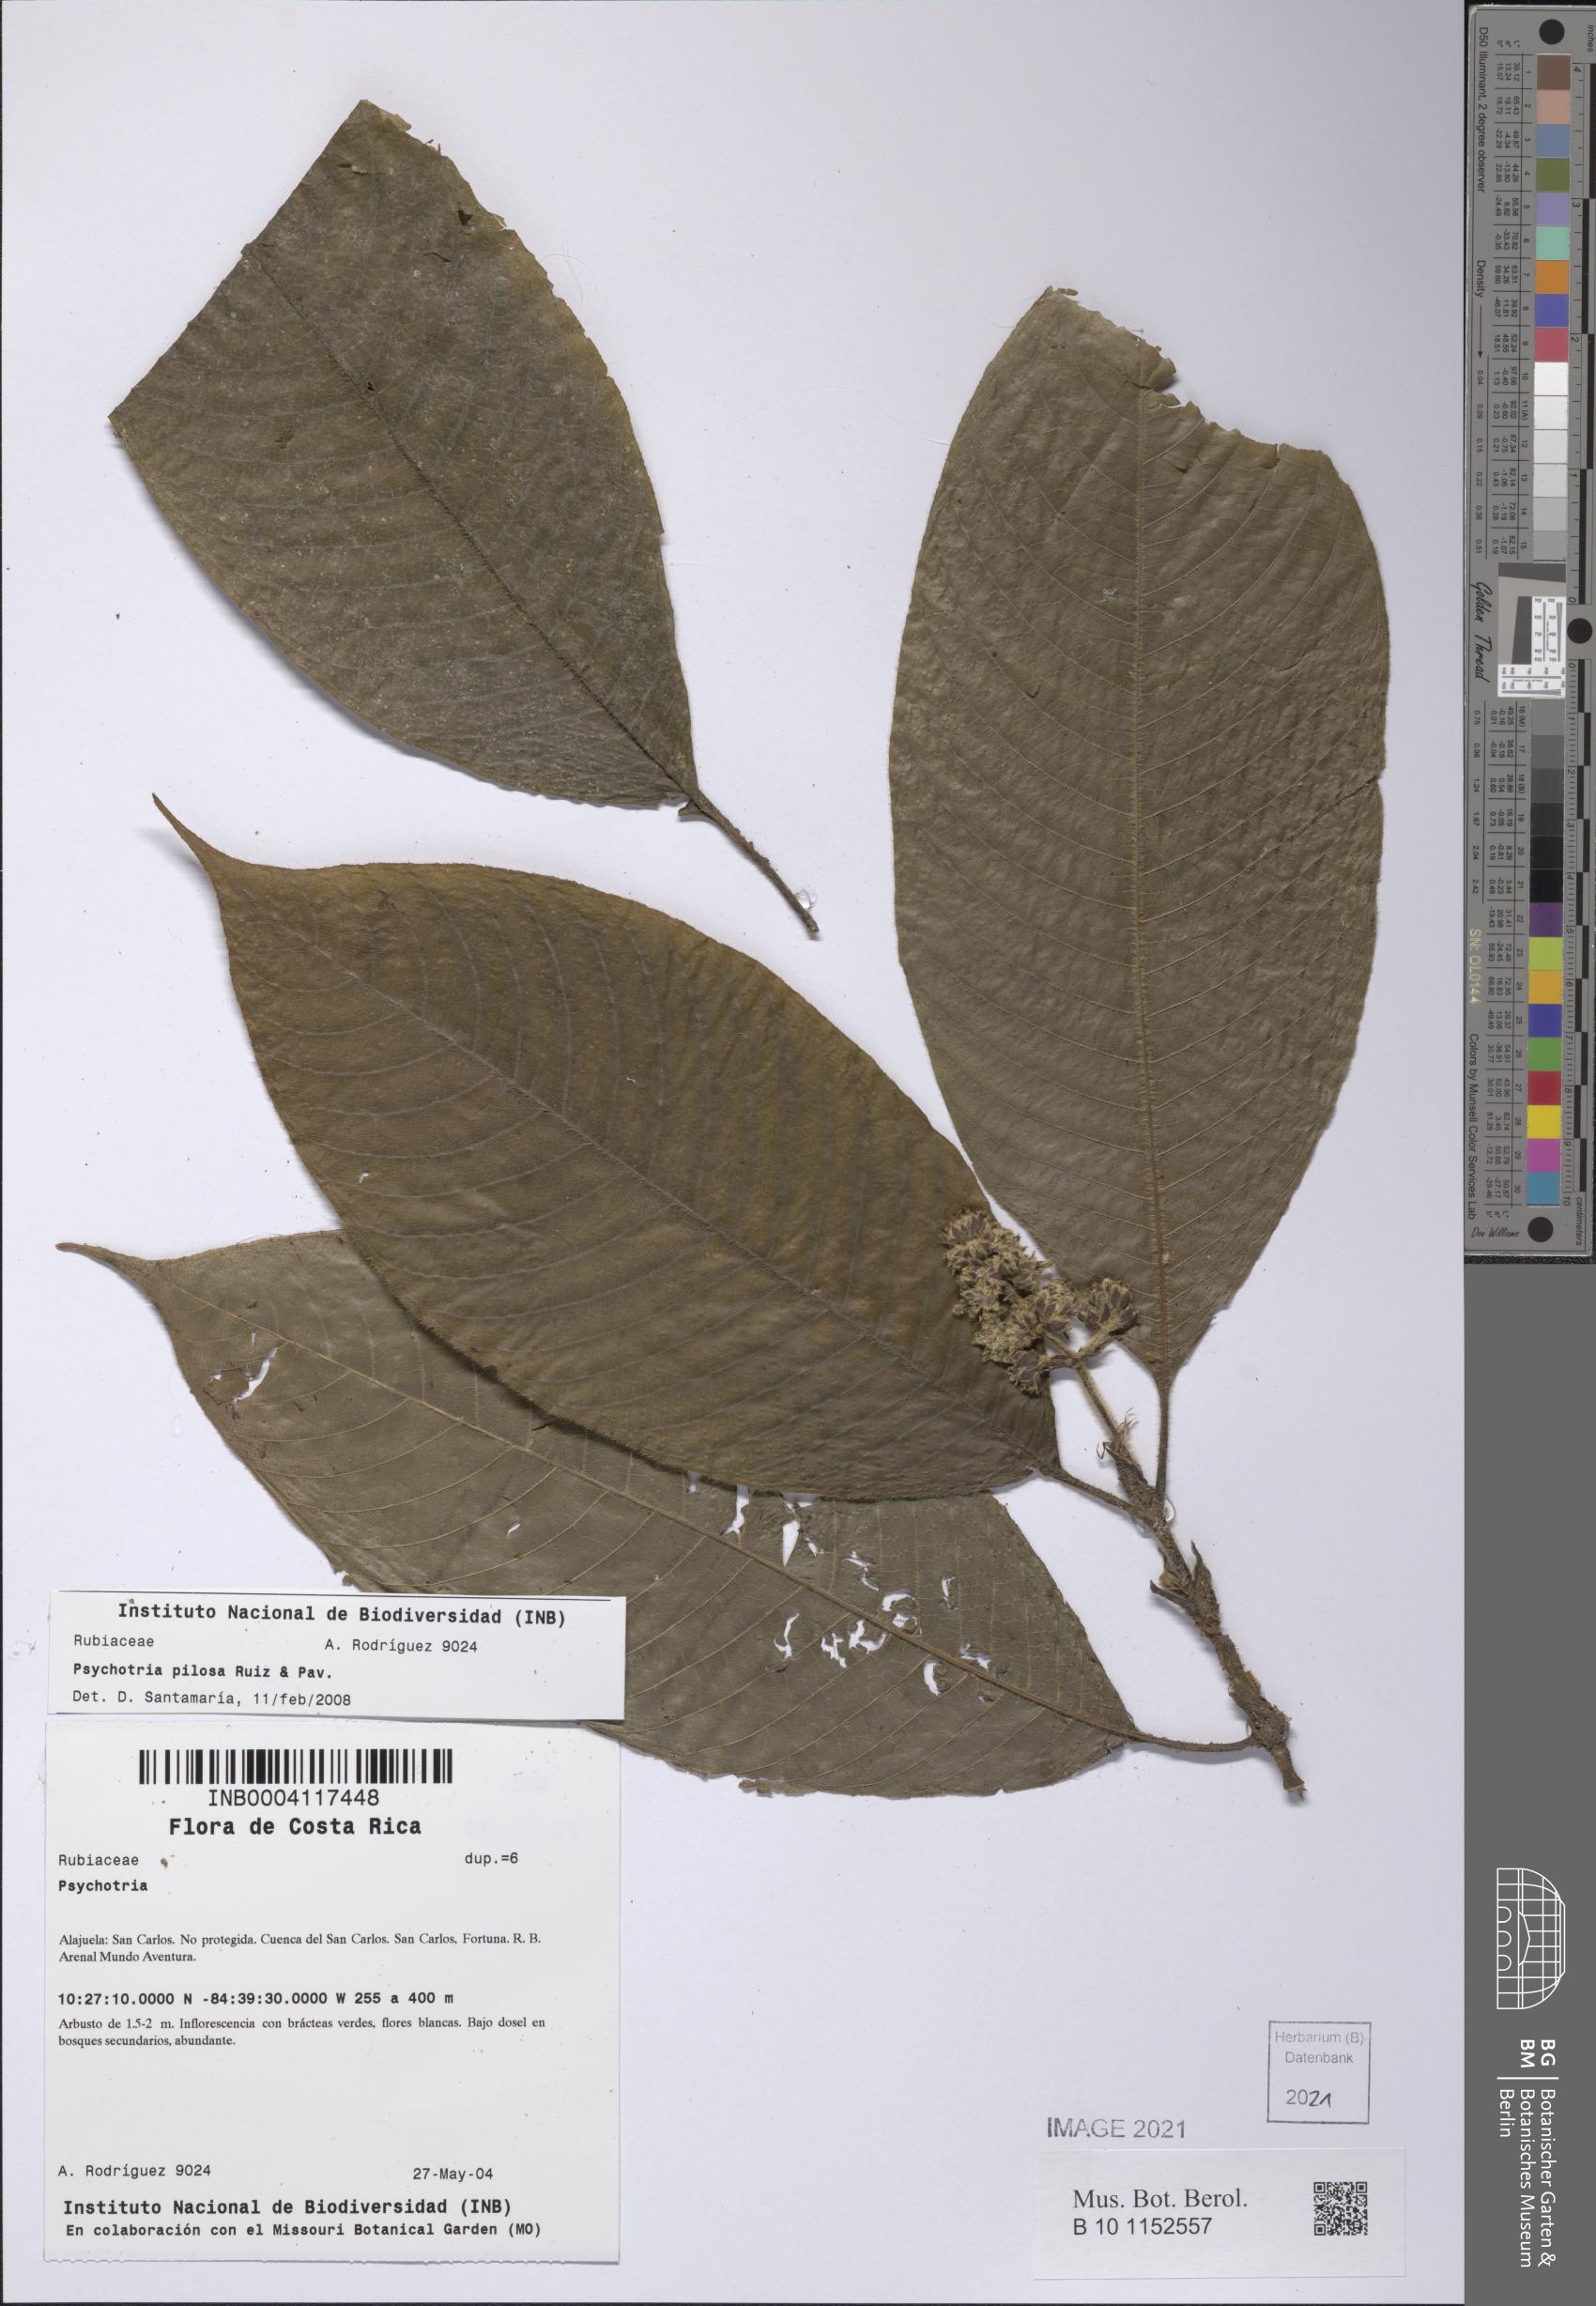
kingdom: Plantae
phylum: Tracheophyta
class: Magnoliopsida
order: Gentianales
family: Rubiaceae
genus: Palicourea
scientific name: Palicourea pilosa
